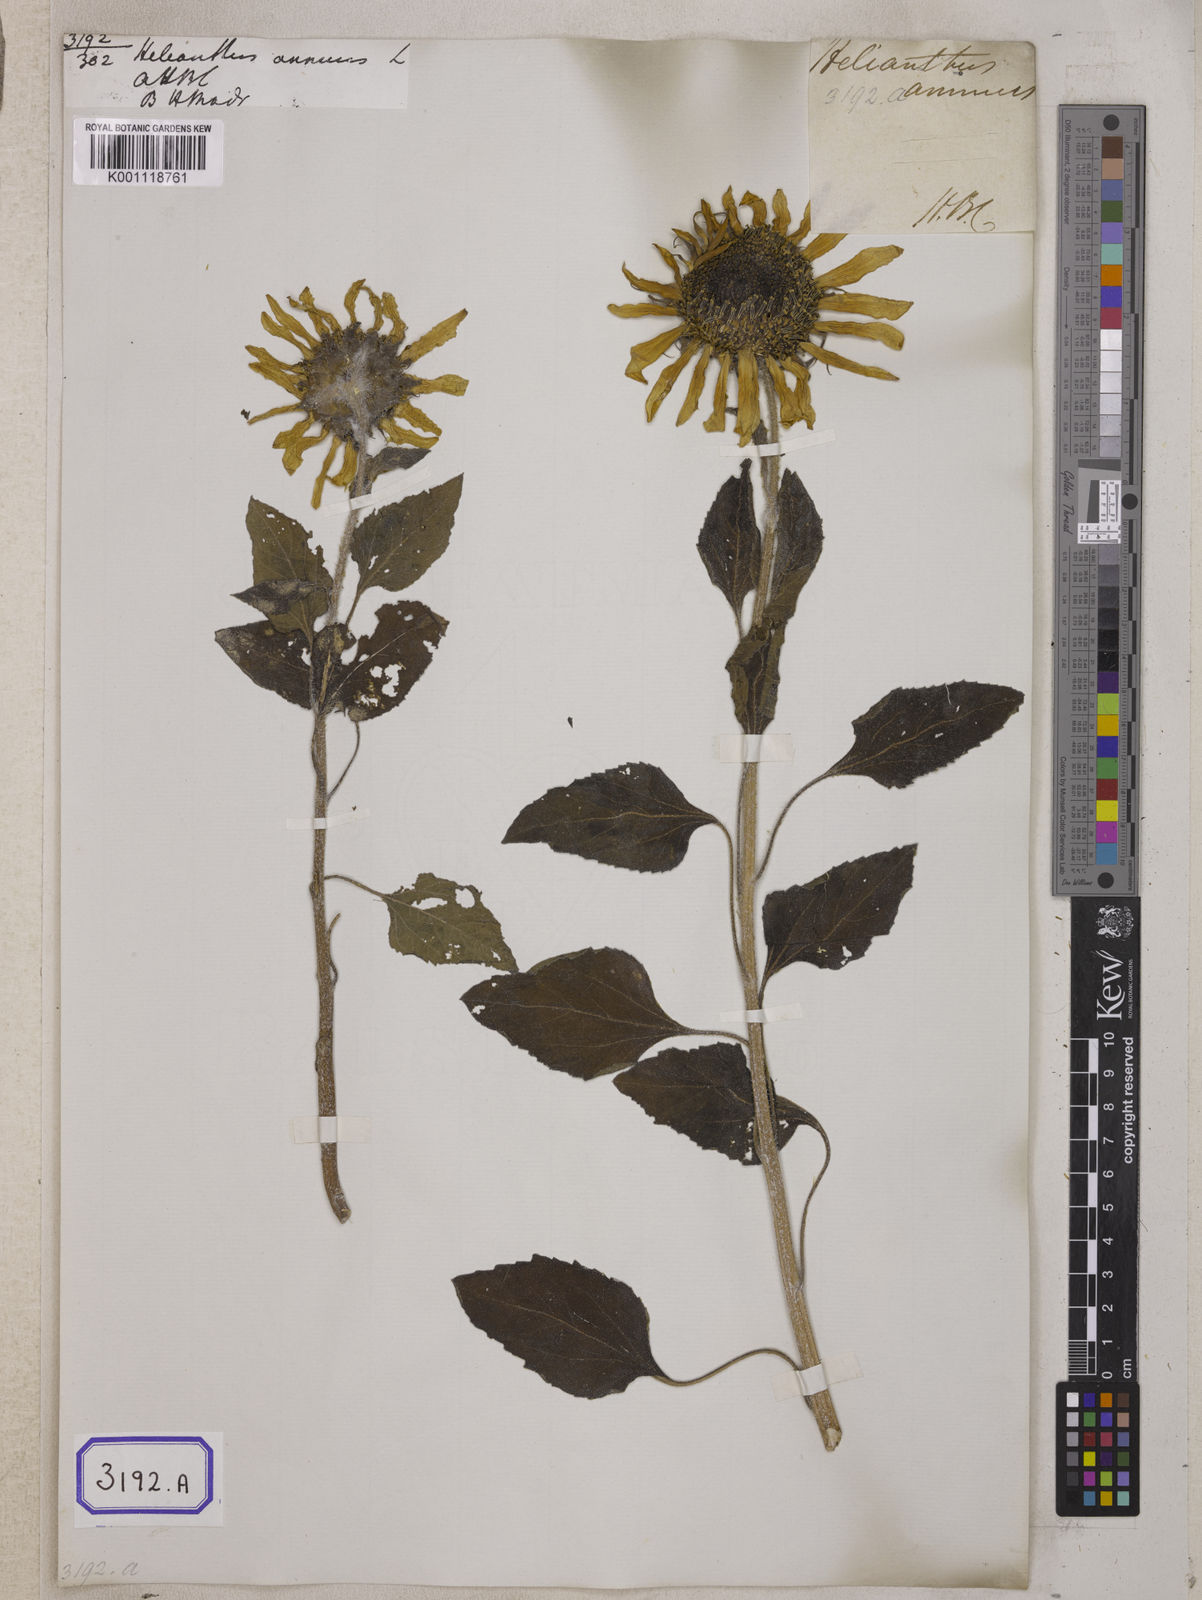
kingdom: Plantae
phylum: Tracheophyta
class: Magnoliopsida
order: Asterales
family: Asteraceae
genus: Helianthus
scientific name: Helianthus annuus
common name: Sunflower
